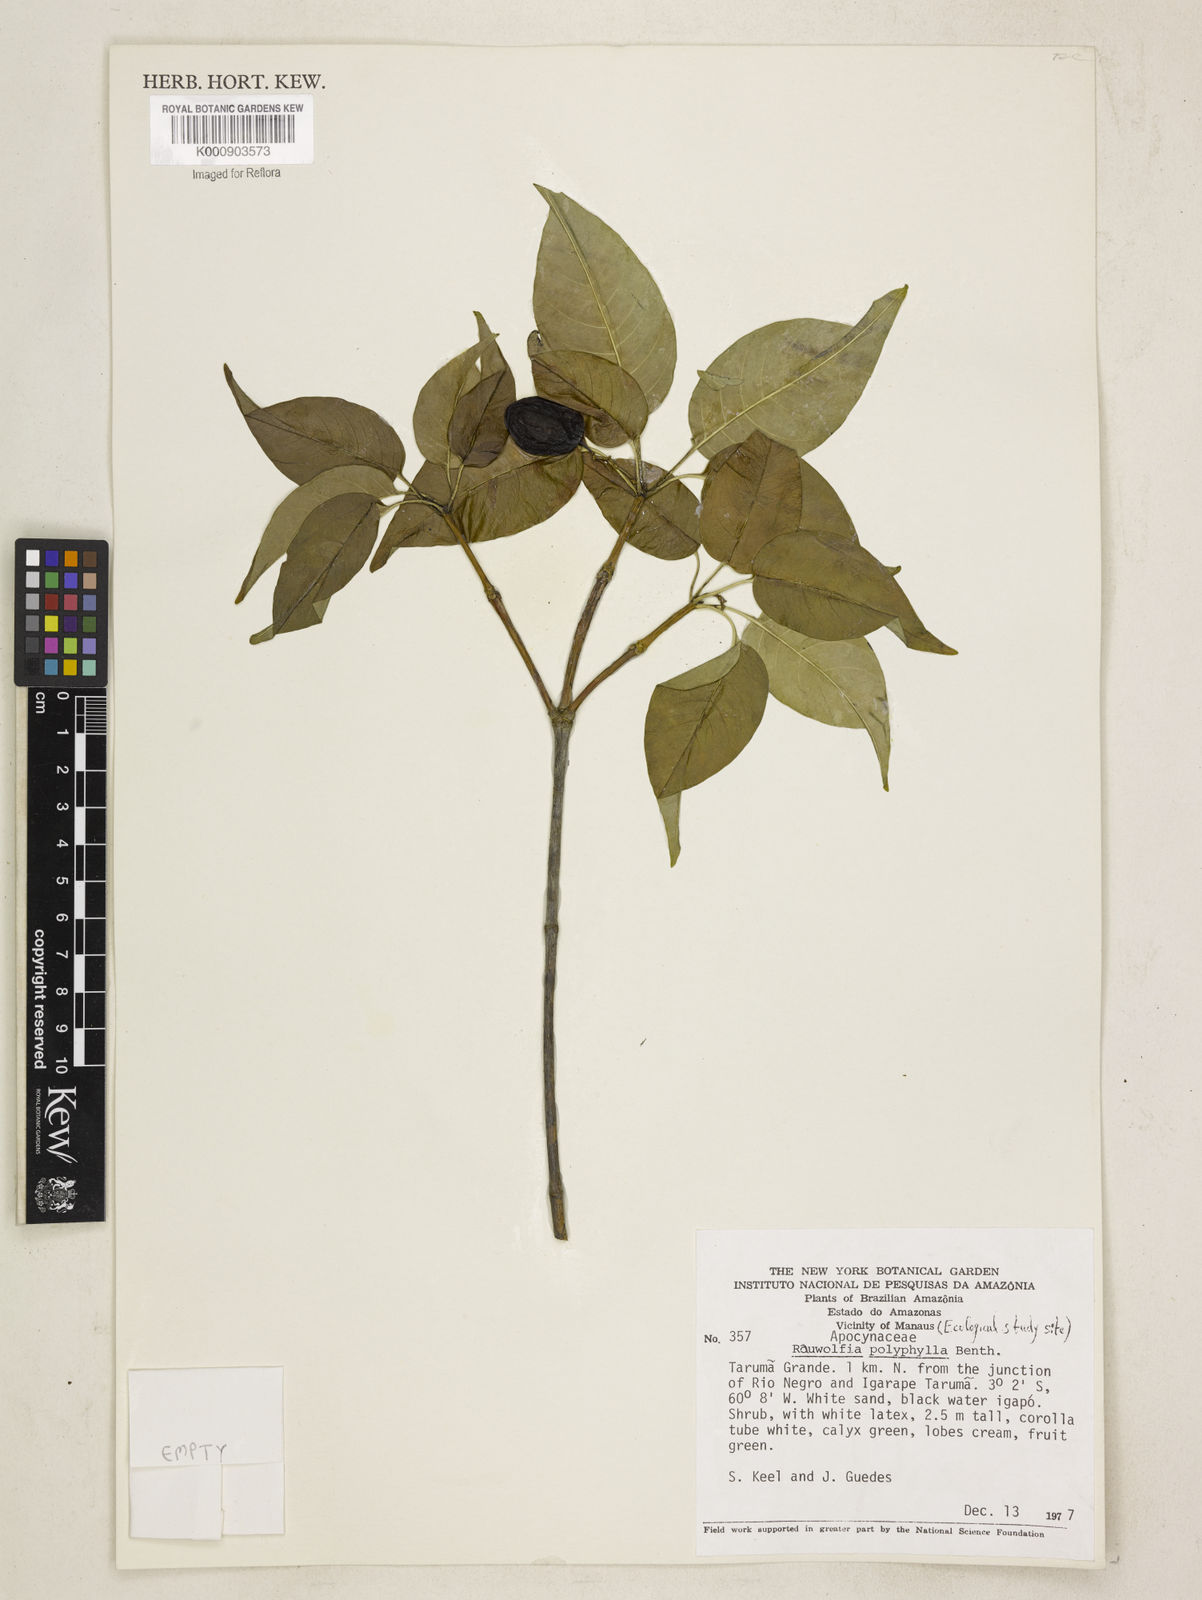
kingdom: Plantae
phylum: Tracheophyta
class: Magnoliopsida
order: Gentianales
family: Apocynaceae
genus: Rauvolfia
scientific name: Rauvolfia polyphylla
